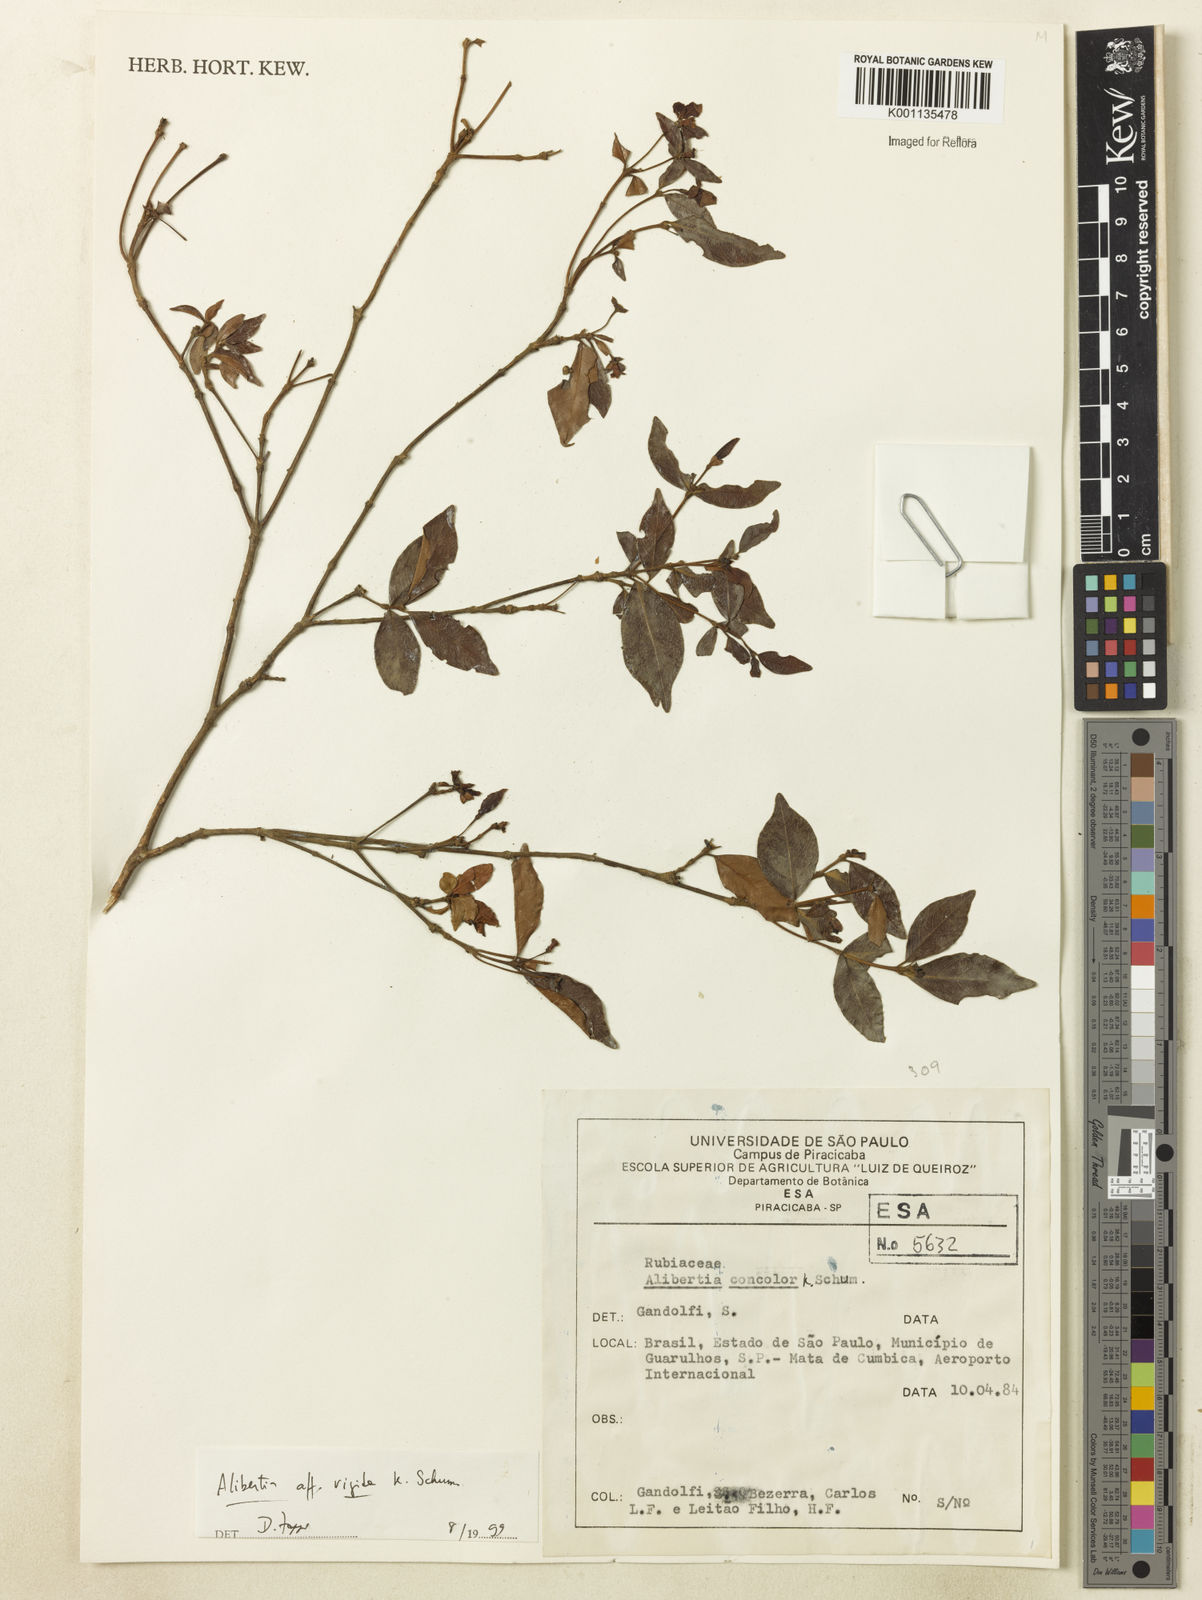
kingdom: Plantae
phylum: Tracheophyta
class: Magnoliopsida
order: Gentianales
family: Rubiaceae
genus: Cordiera
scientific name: Cordiera rigida
